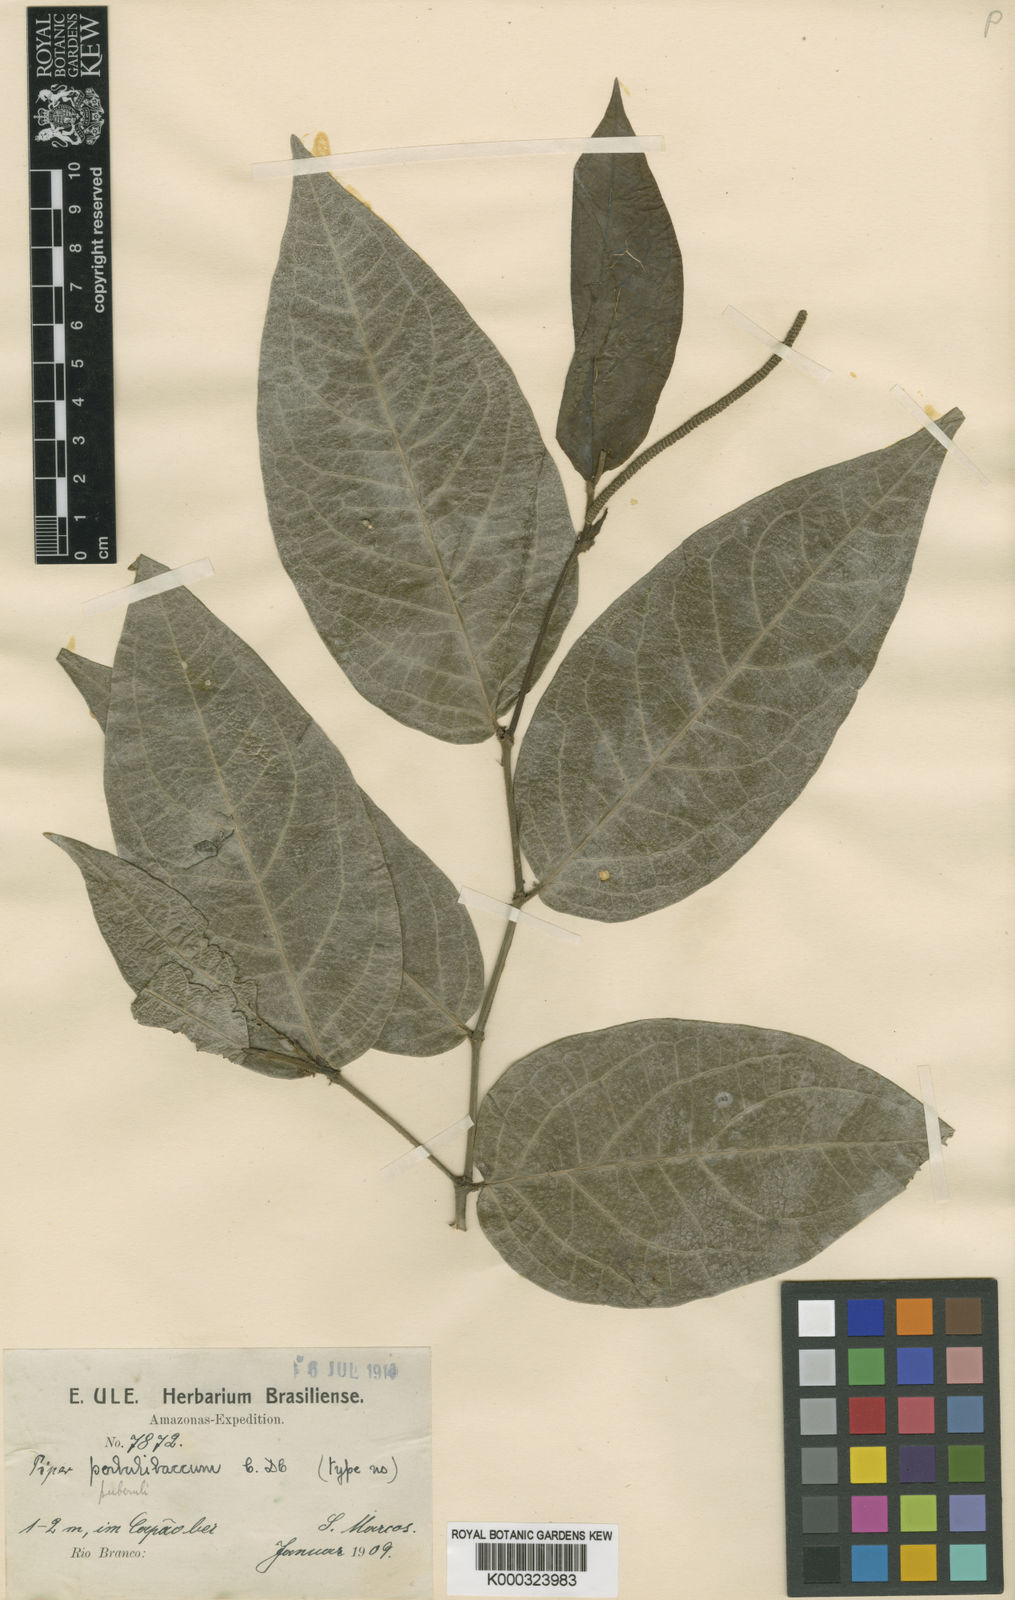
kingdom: Plantae
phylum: Tracheophyta
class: Magnoliopsida
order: Piperales
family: Piperaceae
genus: Piper
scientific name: Piper hostmannianum
